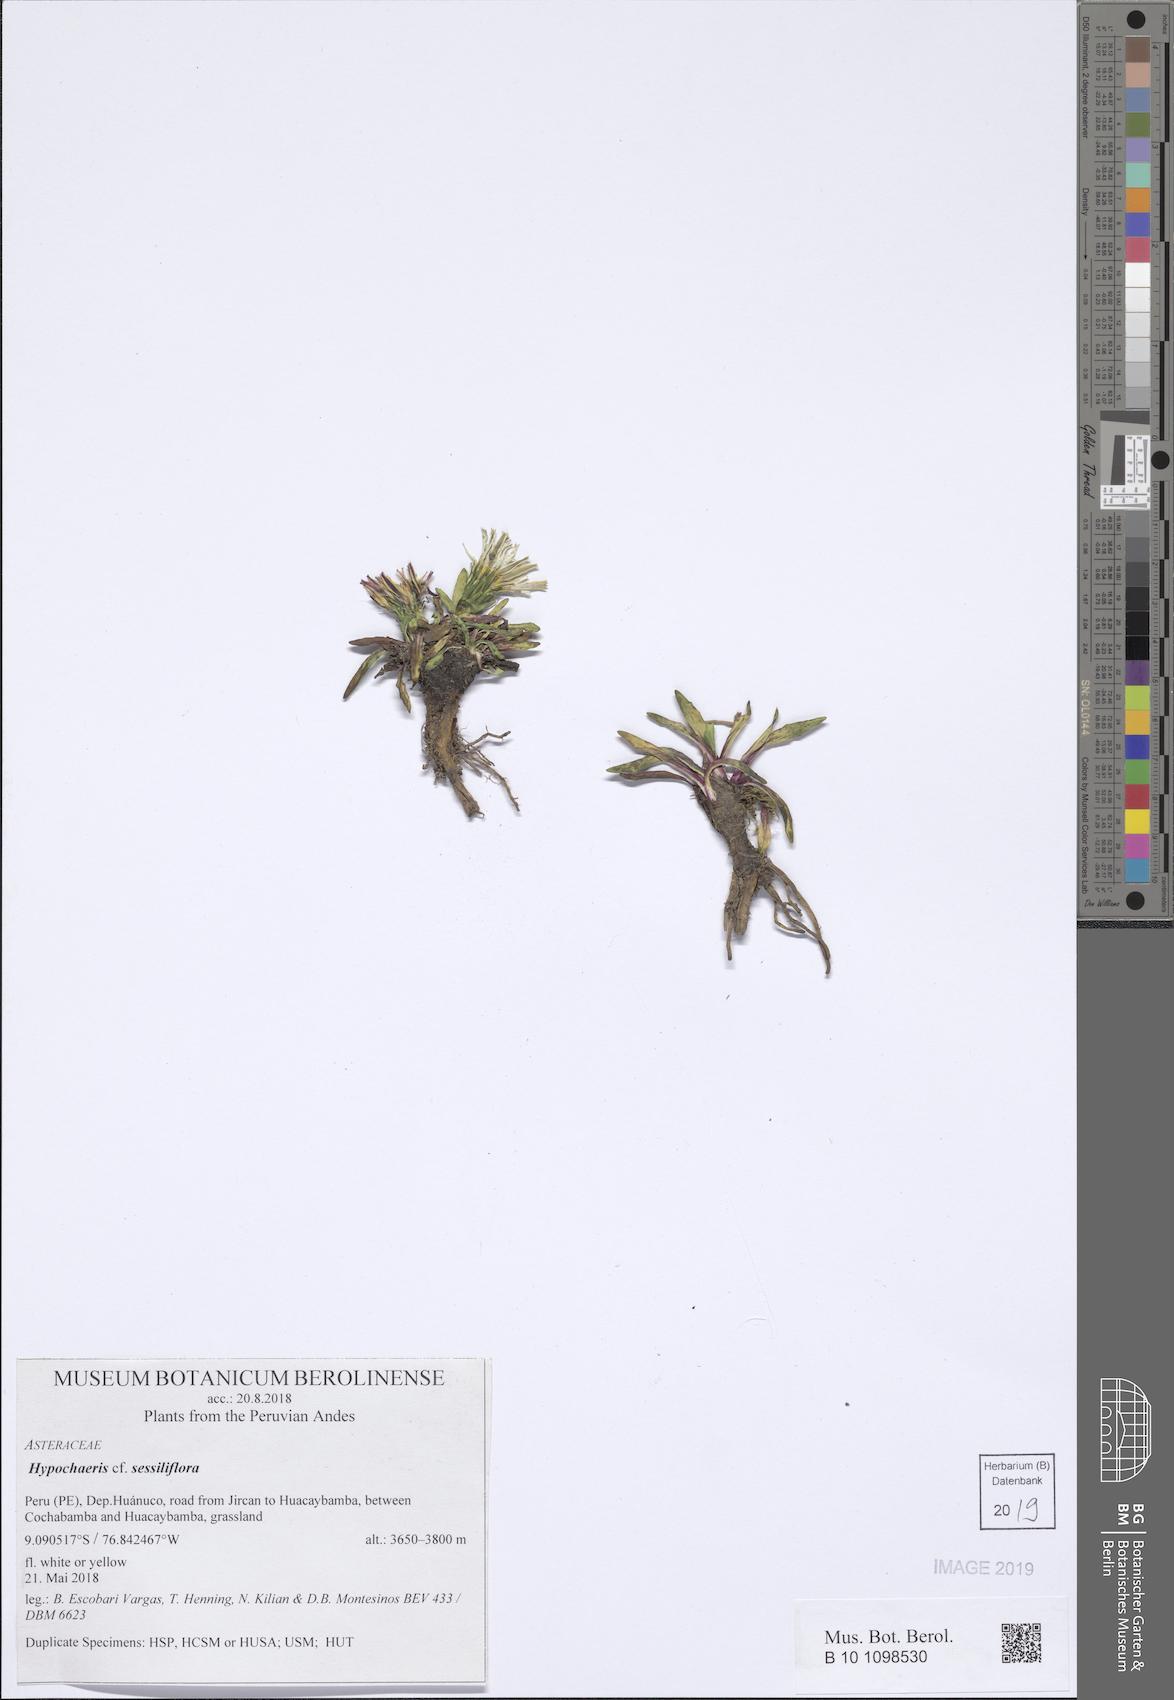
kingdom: Plantae
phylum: Tracheophyta
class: Magnoliopsida
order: Asterales
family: Asteraceae
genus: Hypochaeris
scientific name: Hypochaeris sessiliflora
